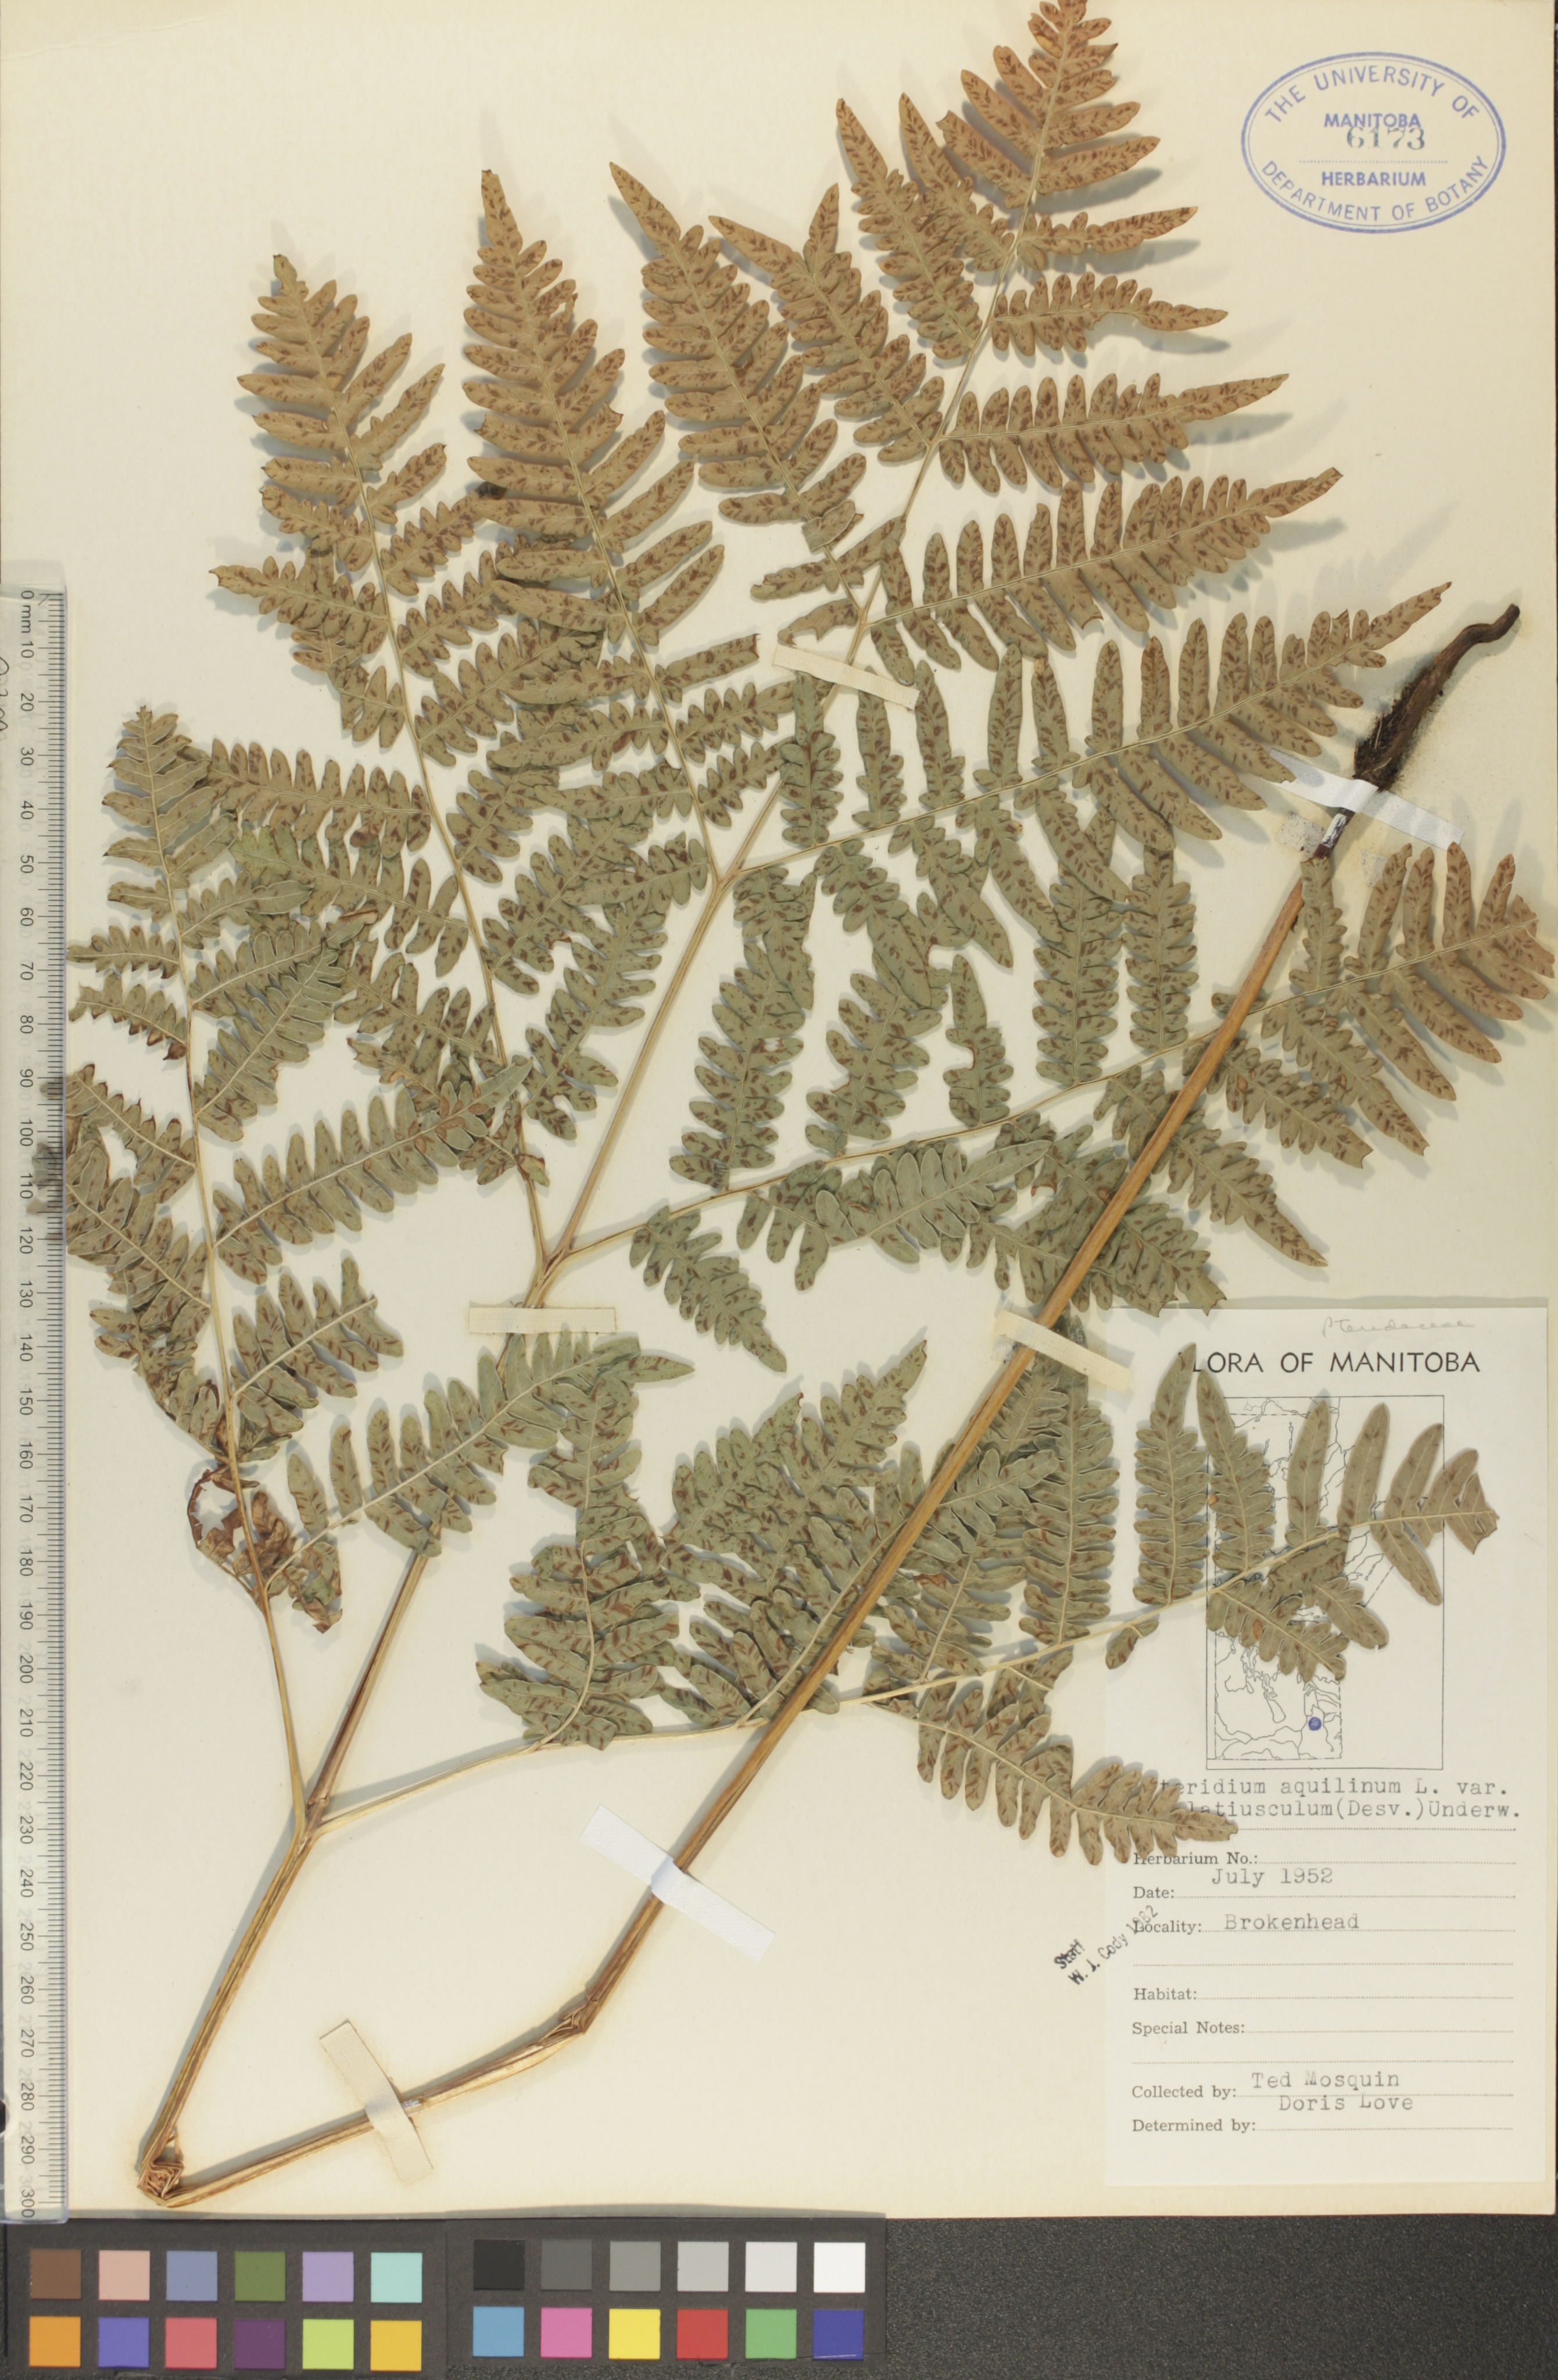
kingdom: Plantae
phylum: Tracheophyta
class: Polypodiopsida
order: Polypodiales
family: Dennstaedtiaceae
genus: Pteridium
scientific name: Pteridium aquilinum
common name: Bracken
